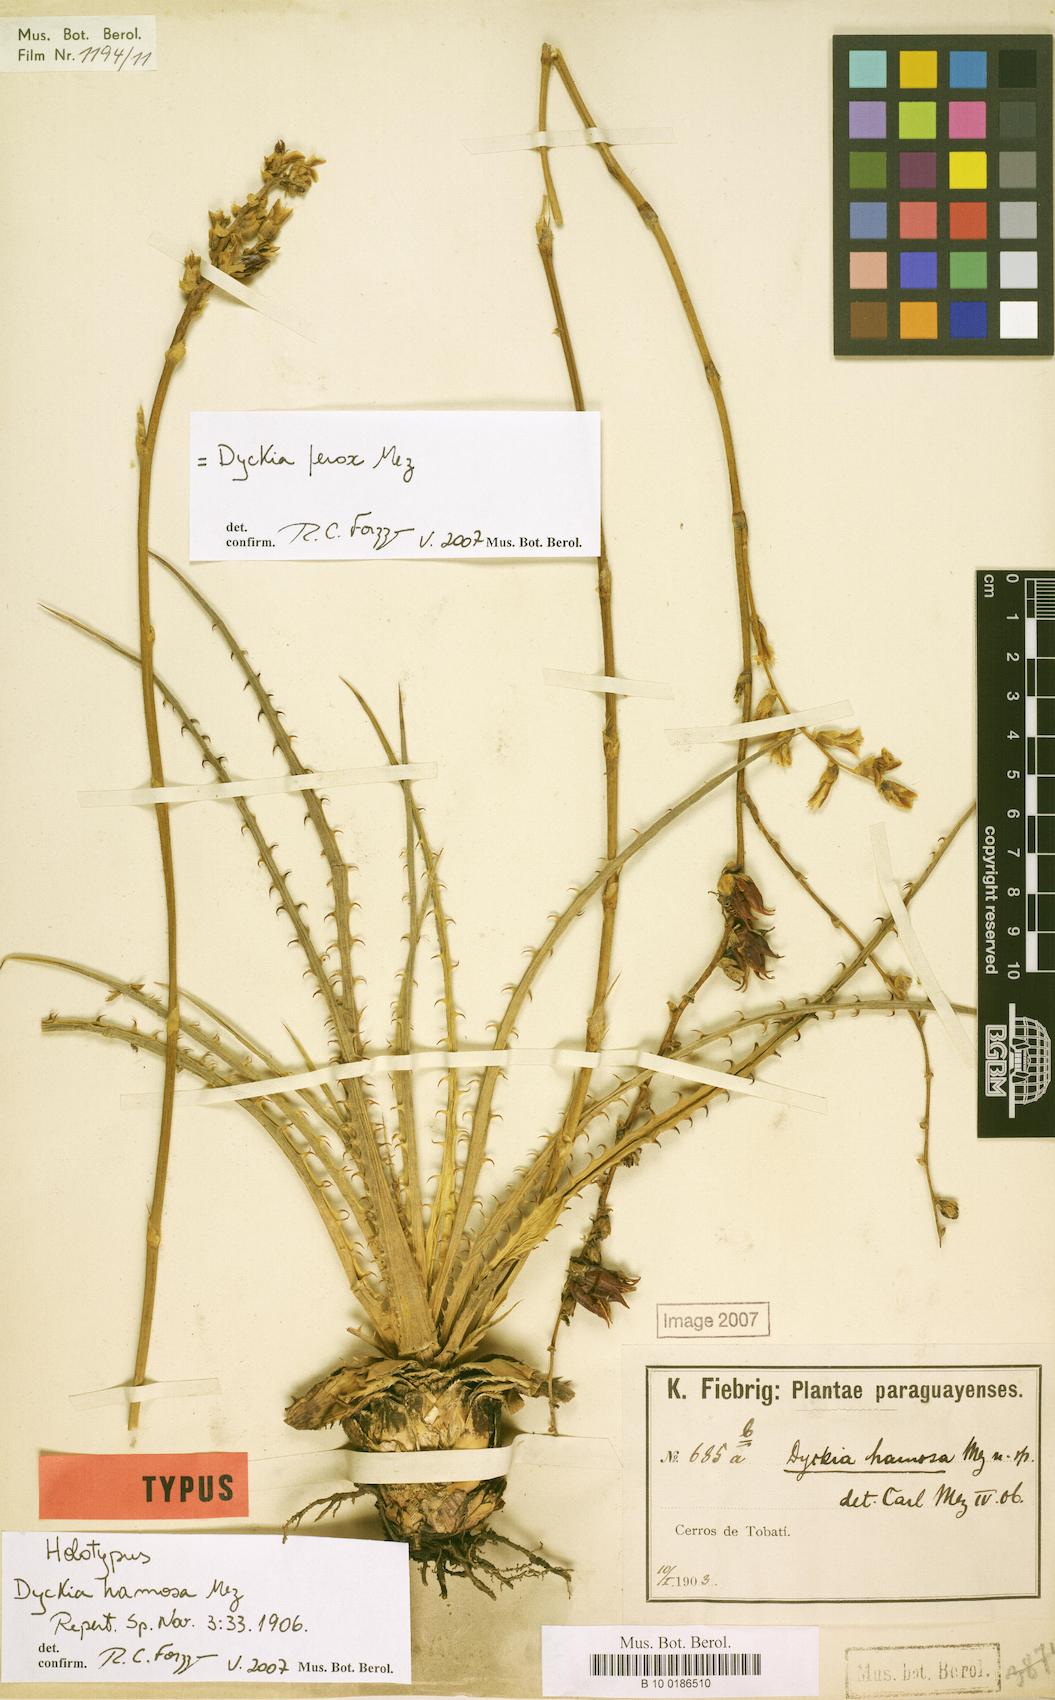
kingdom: Plantae
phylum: Tracheophyta
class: Liliopsida
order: Poales
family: Bromeliaceae
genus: Dyckia
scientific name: Dyckia ferox
